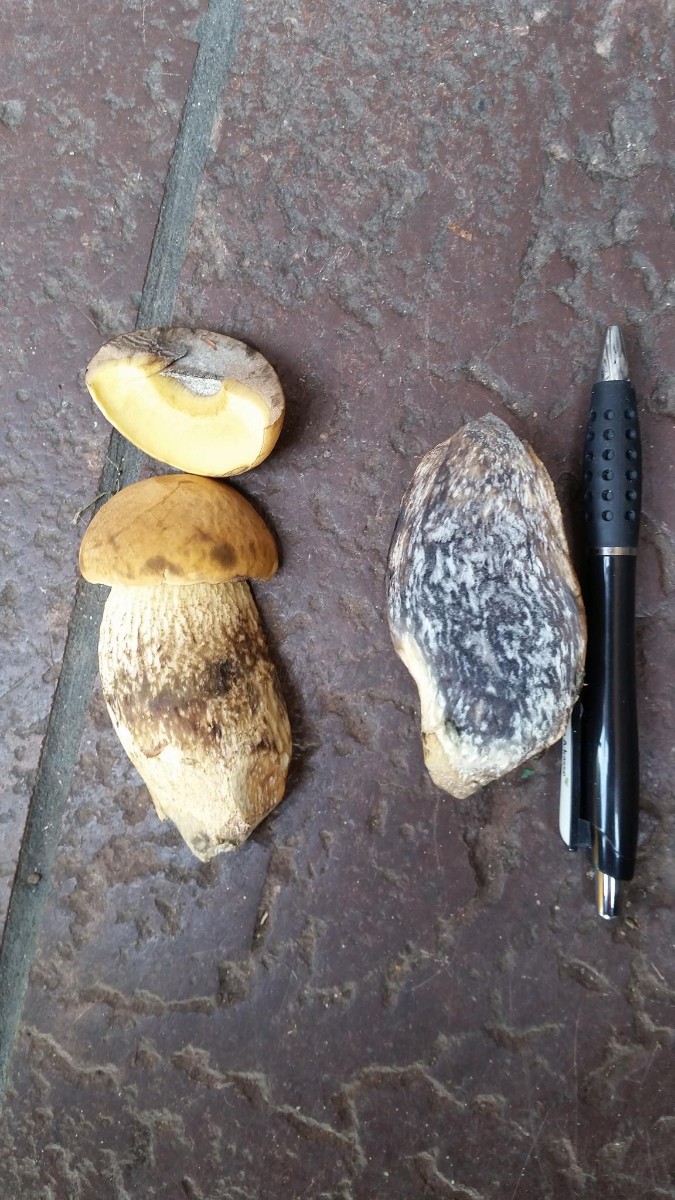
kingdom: Fungi
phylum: Basidiomycota
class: Agaricomycetes
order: Boletales
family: Boletaceae
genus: Leccinellum
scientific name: Leccinellum crocipodium
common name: gul skælrørhat
